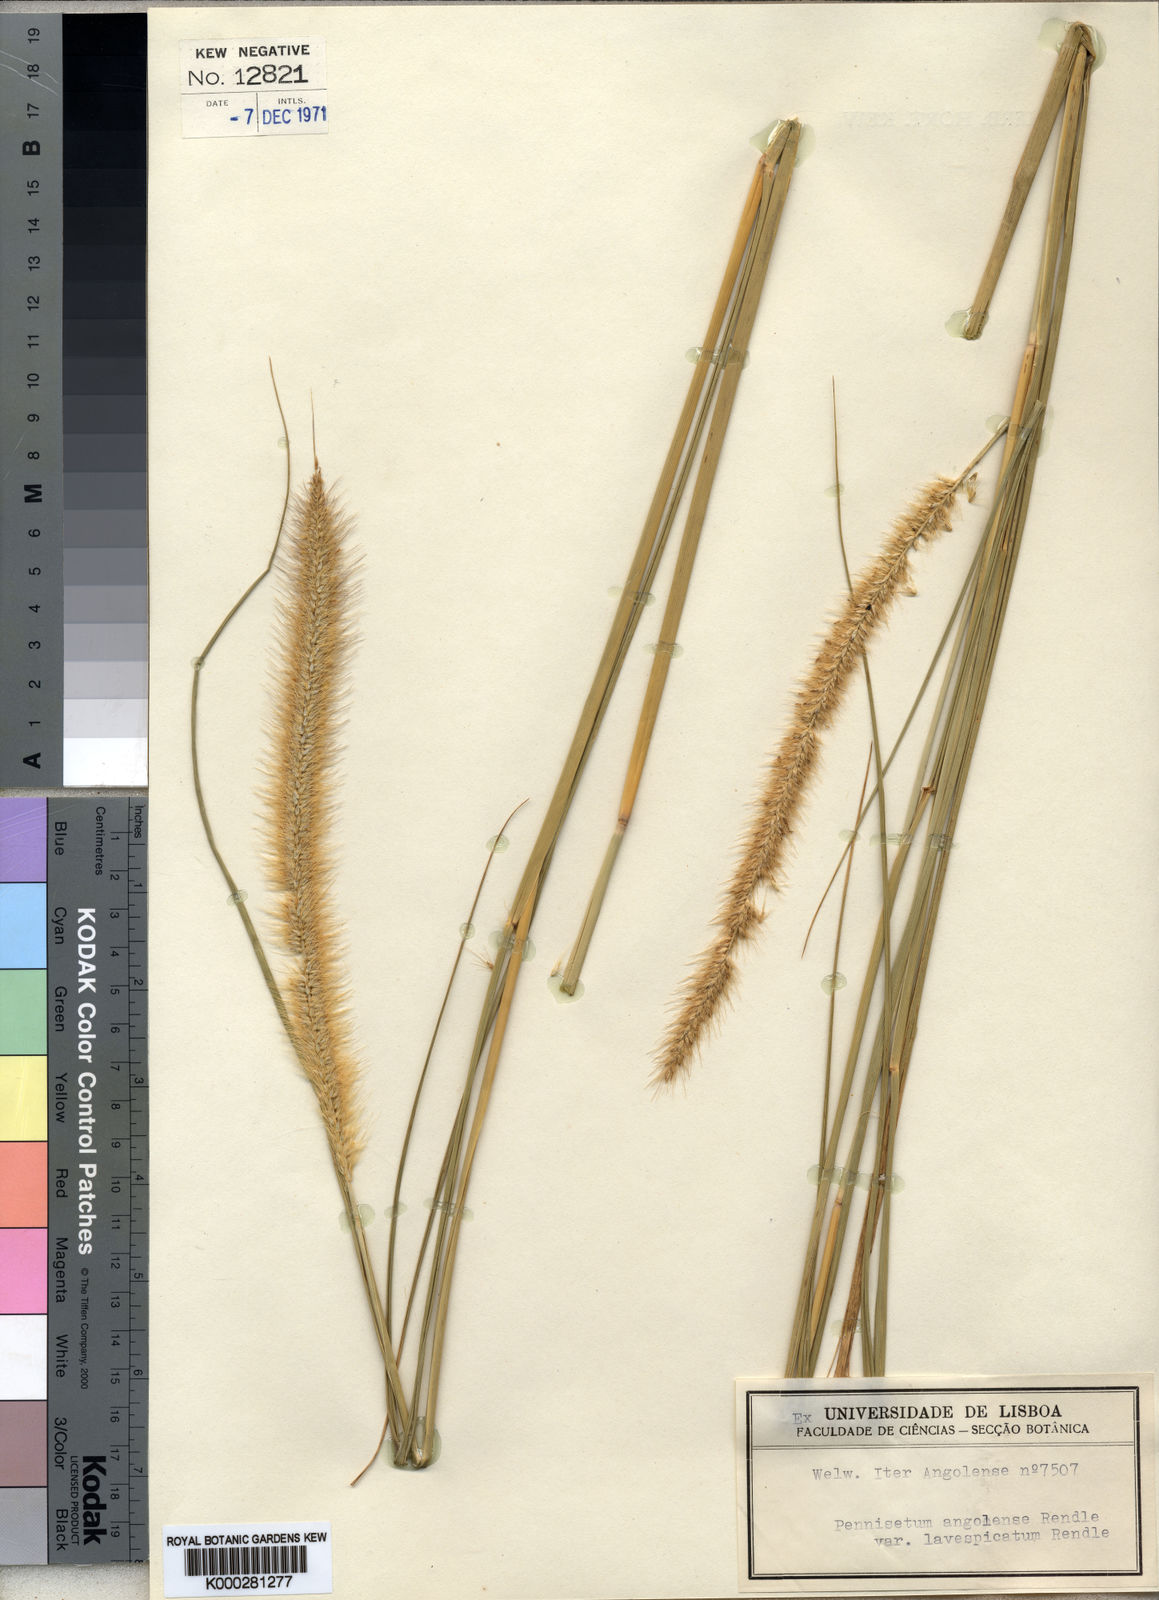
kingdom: Plantae
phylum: Tracheophyta
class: Liliopsida
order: Poales
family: Poaceae
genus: Cenchrus
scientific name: Cenchrus caudatus
